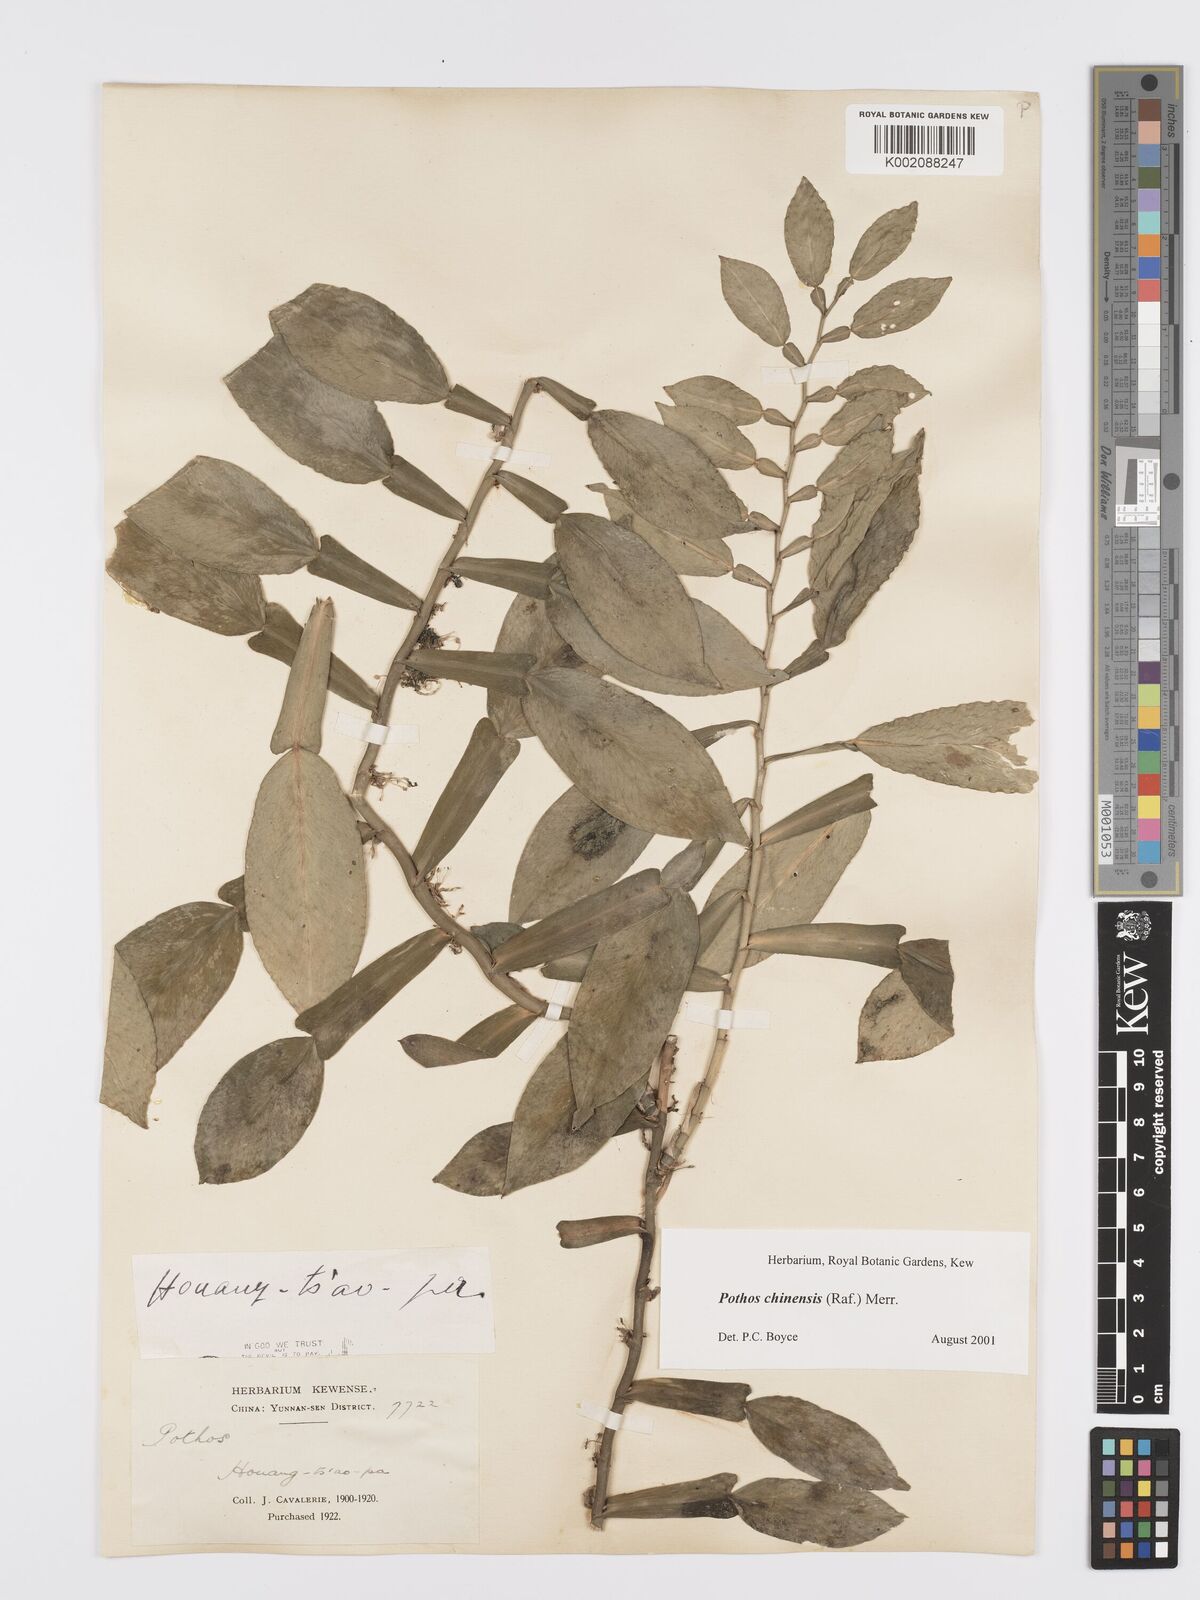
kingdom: Plantae
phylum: Tracheophyta
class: Liliopsida
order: Alismatales
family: Araceae
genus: Pothos
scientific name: Pothos chinensis
